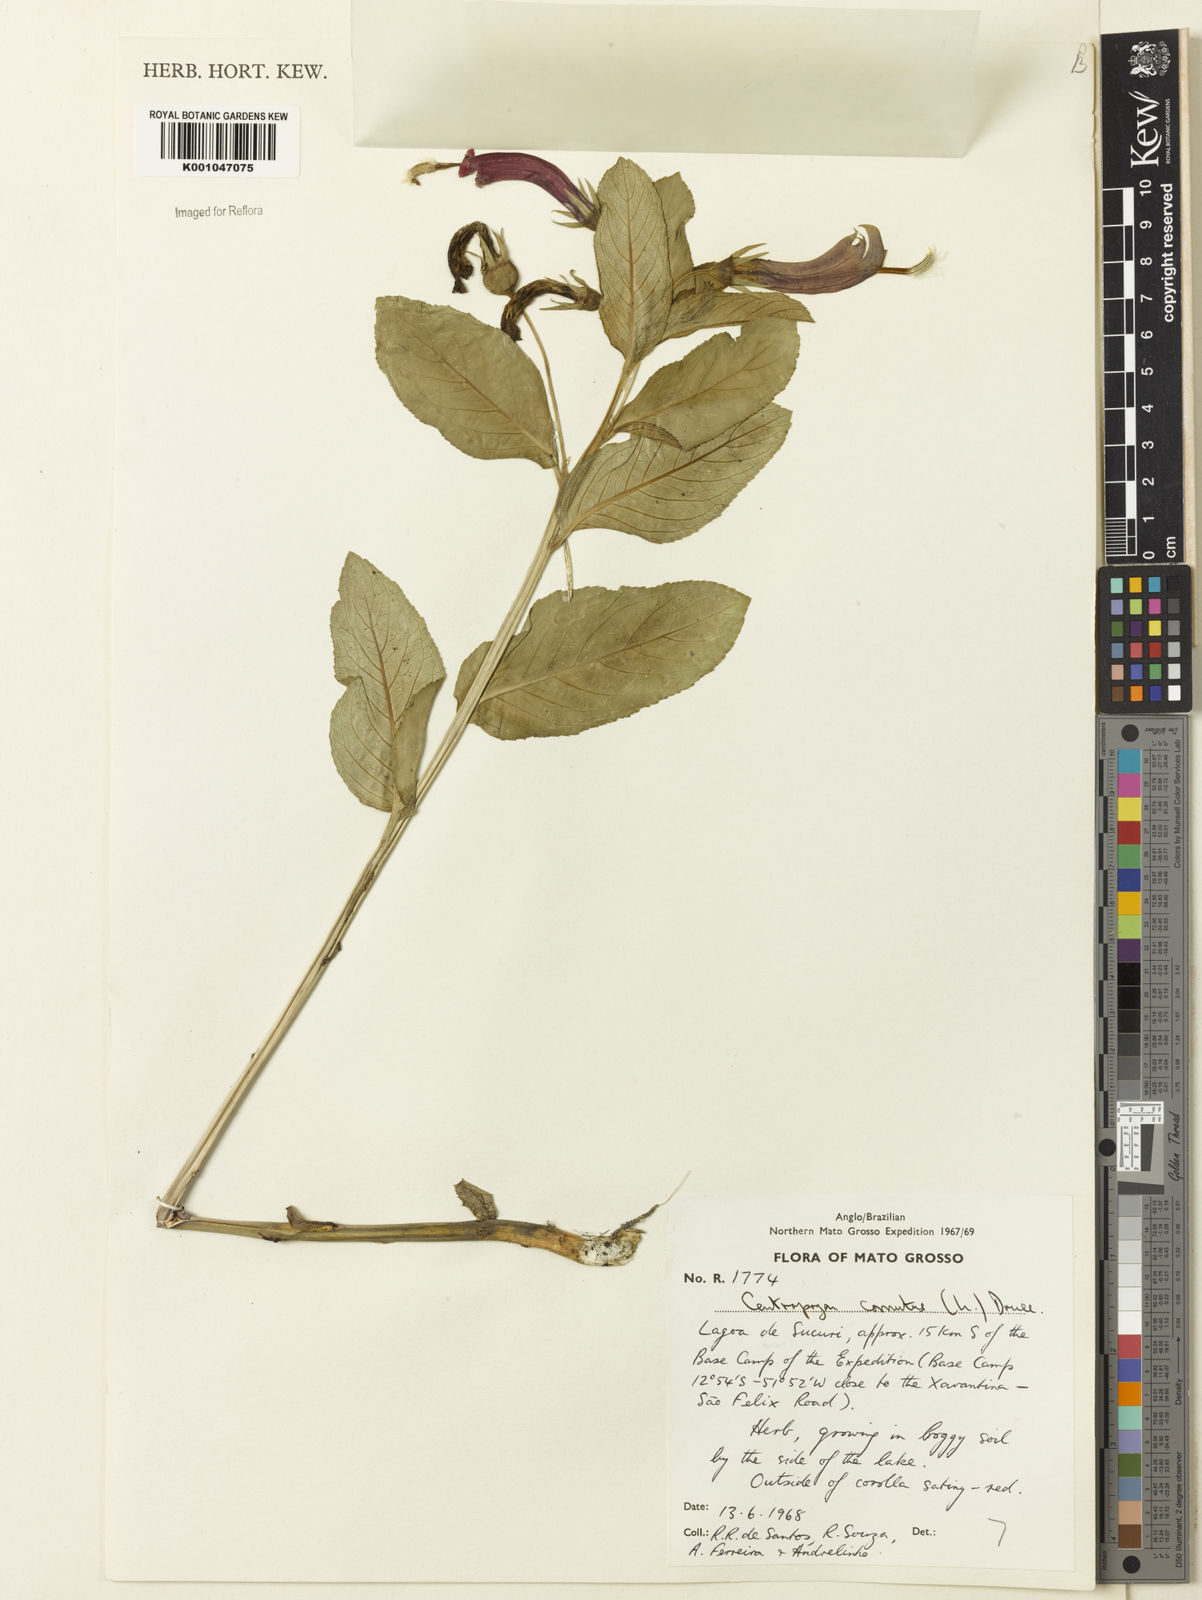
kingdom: Plantae
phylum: Tracheophyta
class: Magnoliopsida
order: Asterales
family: Campanulaceae
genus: Centropogon
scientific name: Centropogon cornutus
